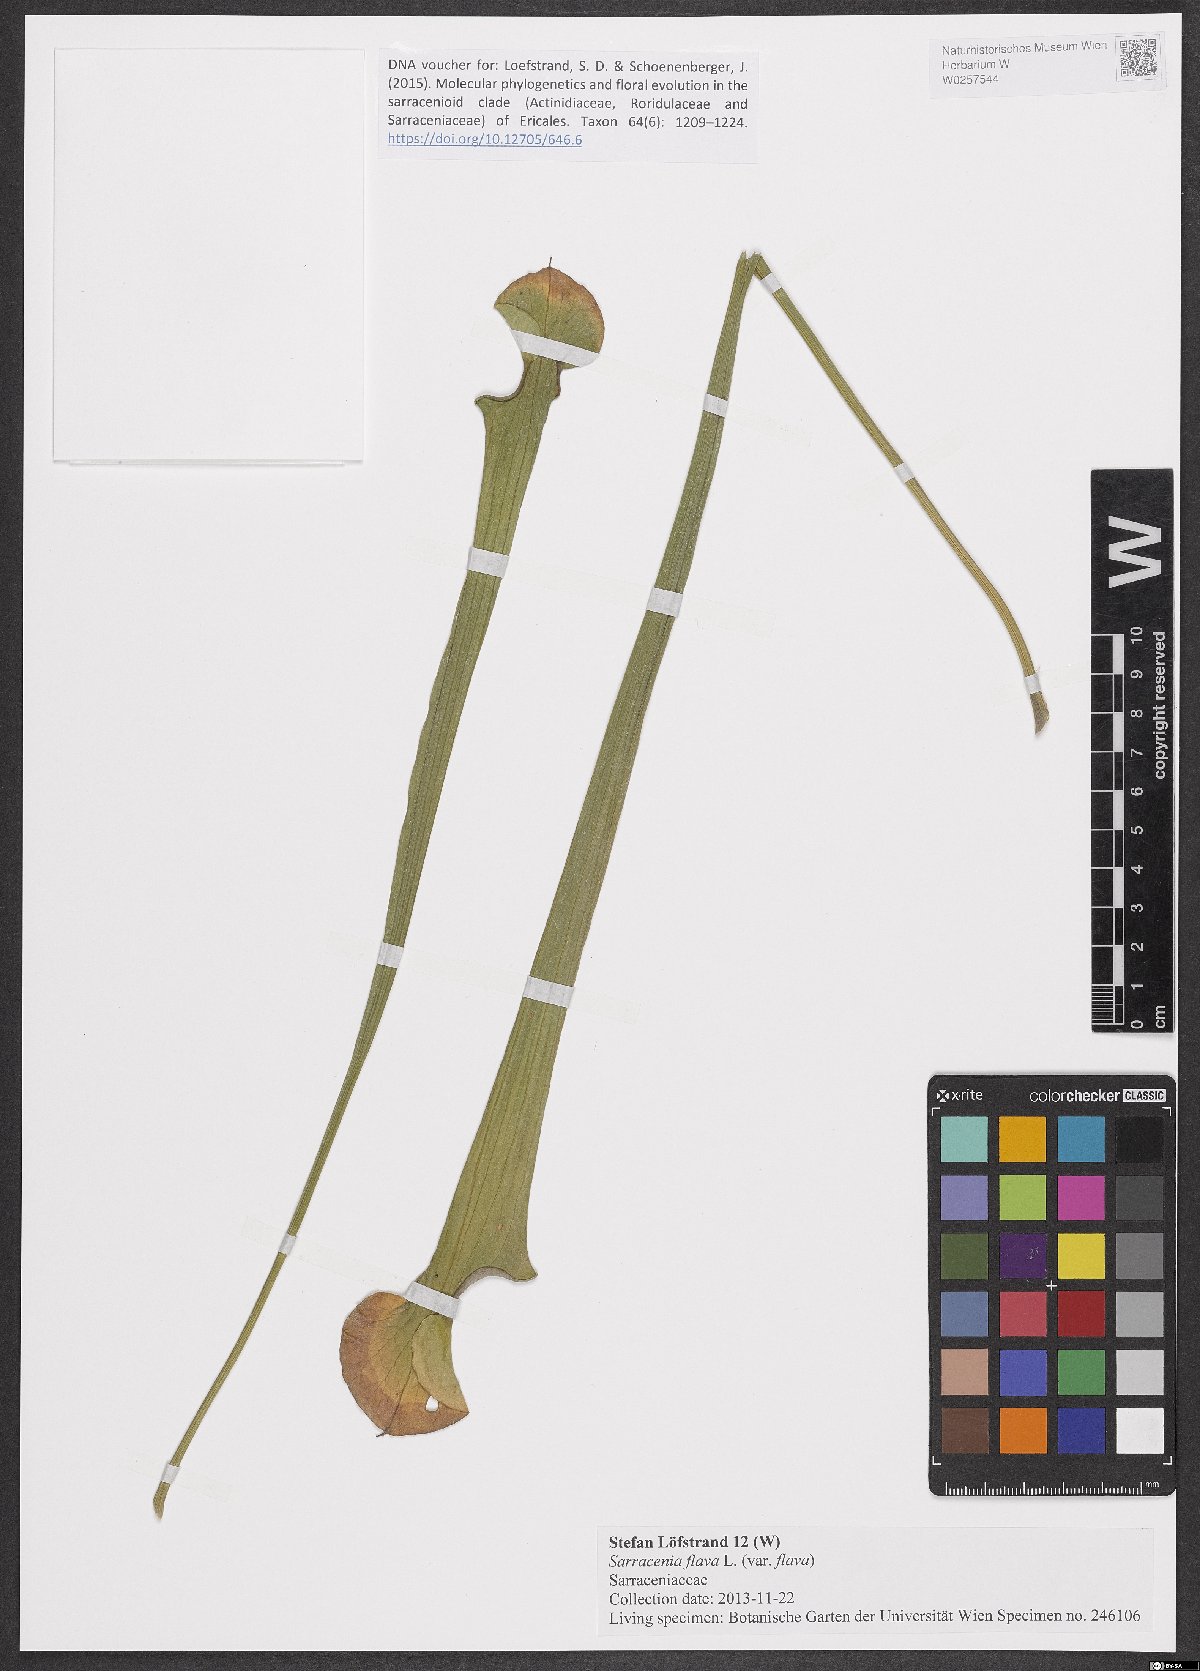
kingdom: Plantae
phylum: Tracheophyta
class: Magnoliopsida
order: Ericales
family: Sarraceniaceae
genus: Sarracenia
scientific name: Sarracenia flava
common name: Trumpets
